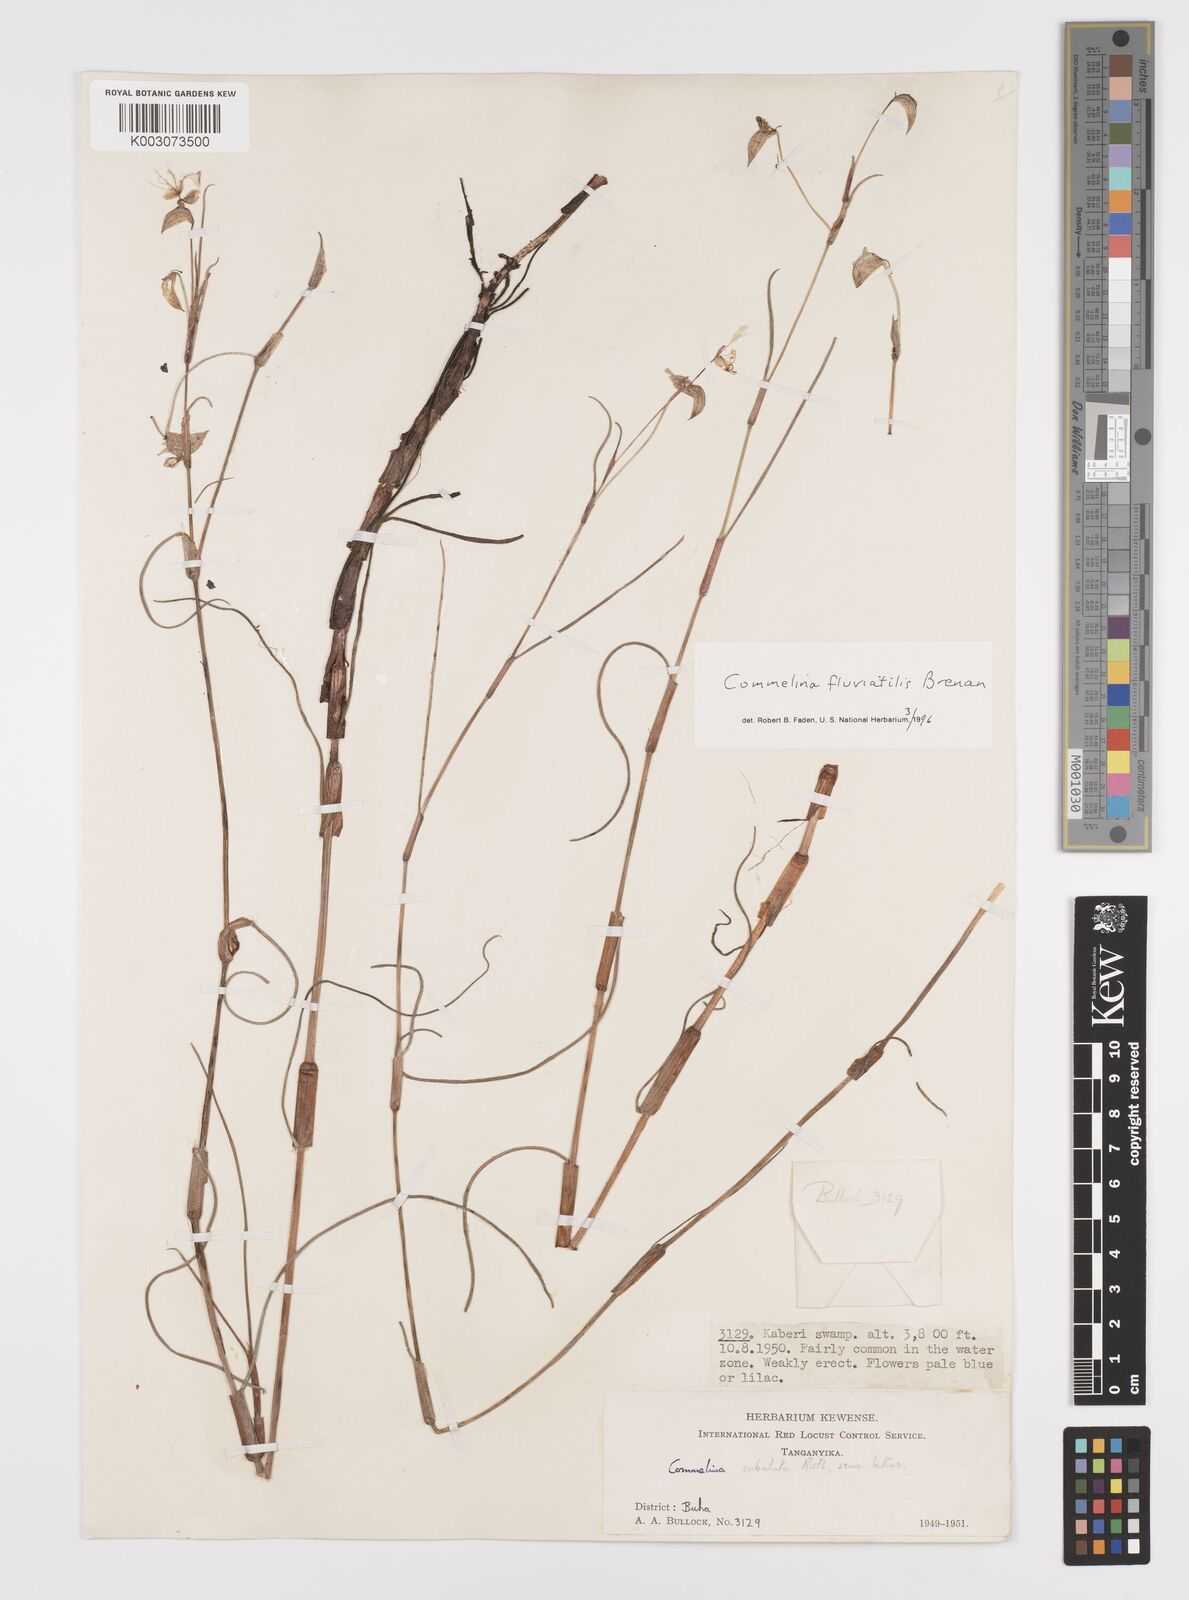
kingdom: Plantae
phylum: Tracheophyta
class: Liliopsida
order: Commelinales
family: Commelinaceae
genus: Commelina
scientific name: Commelina fluviatilis
